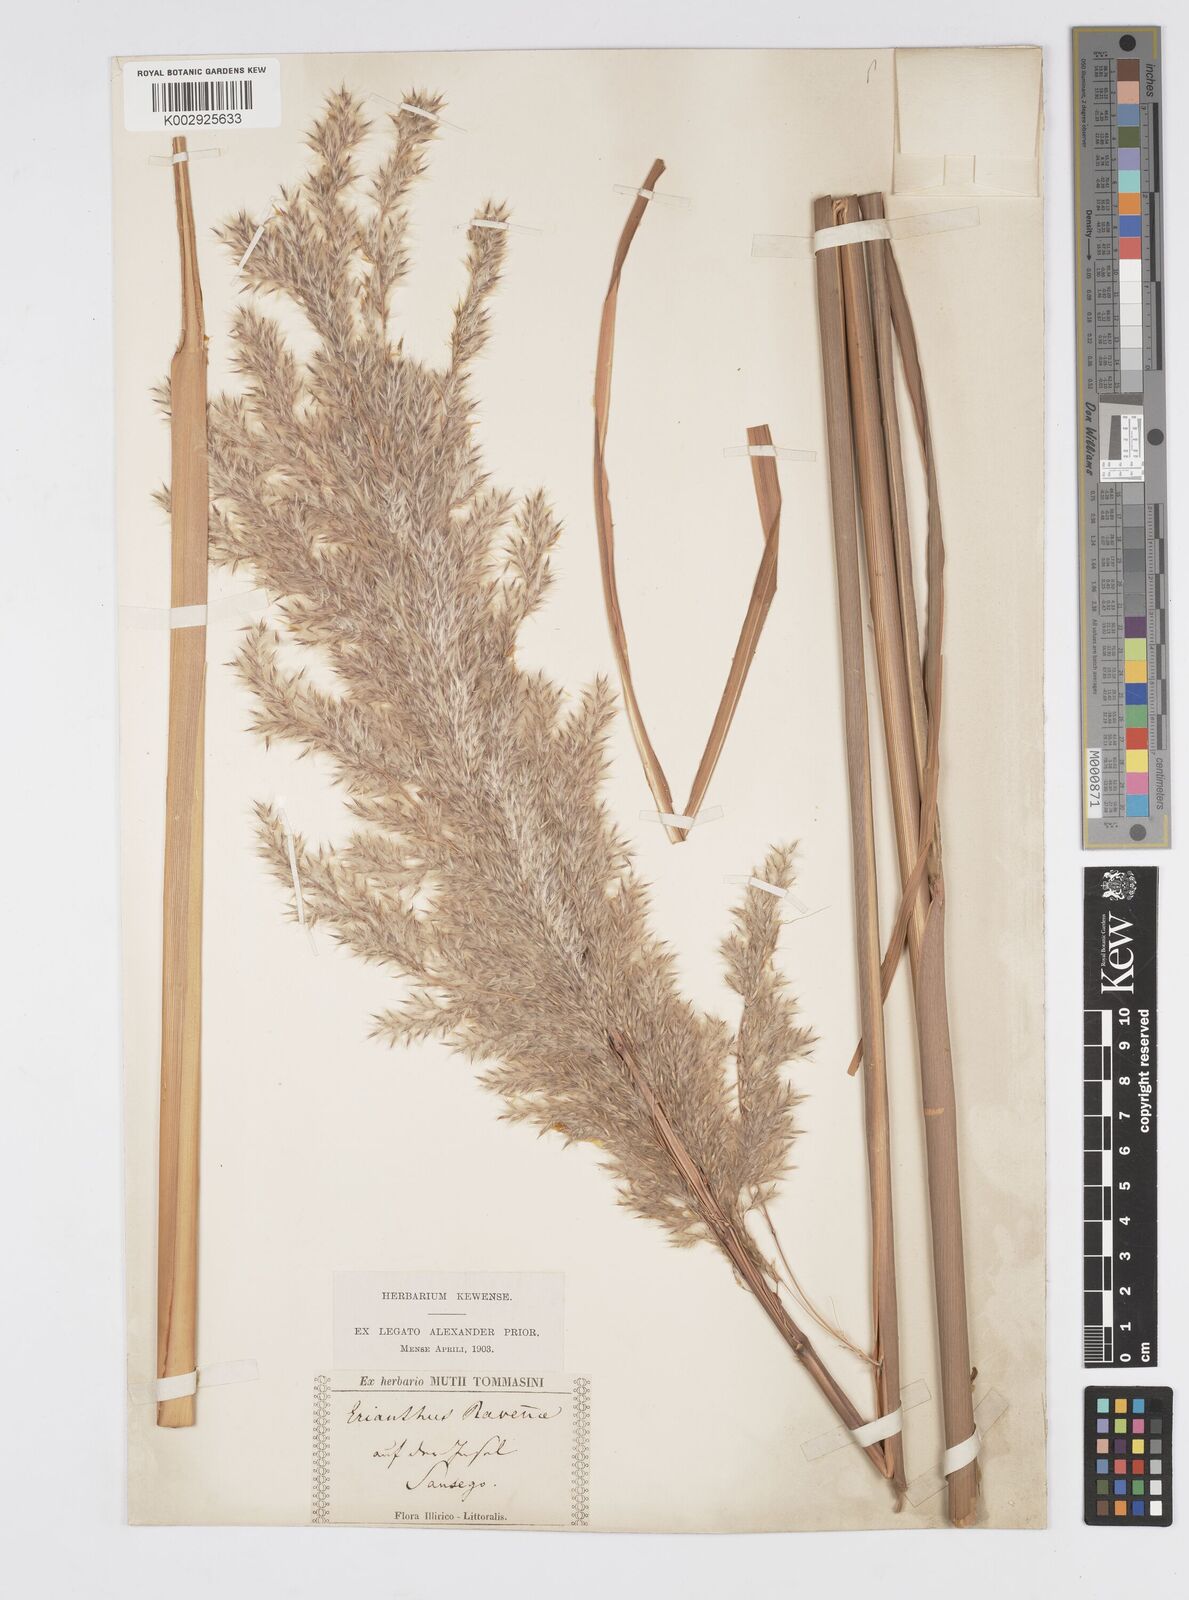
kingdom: Plantae
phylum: Tracheophyta
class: Liliopsida
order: Poales
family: Poaceae
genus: Tripidium
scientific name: Tripidium ravennae
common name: Ravenna grass
